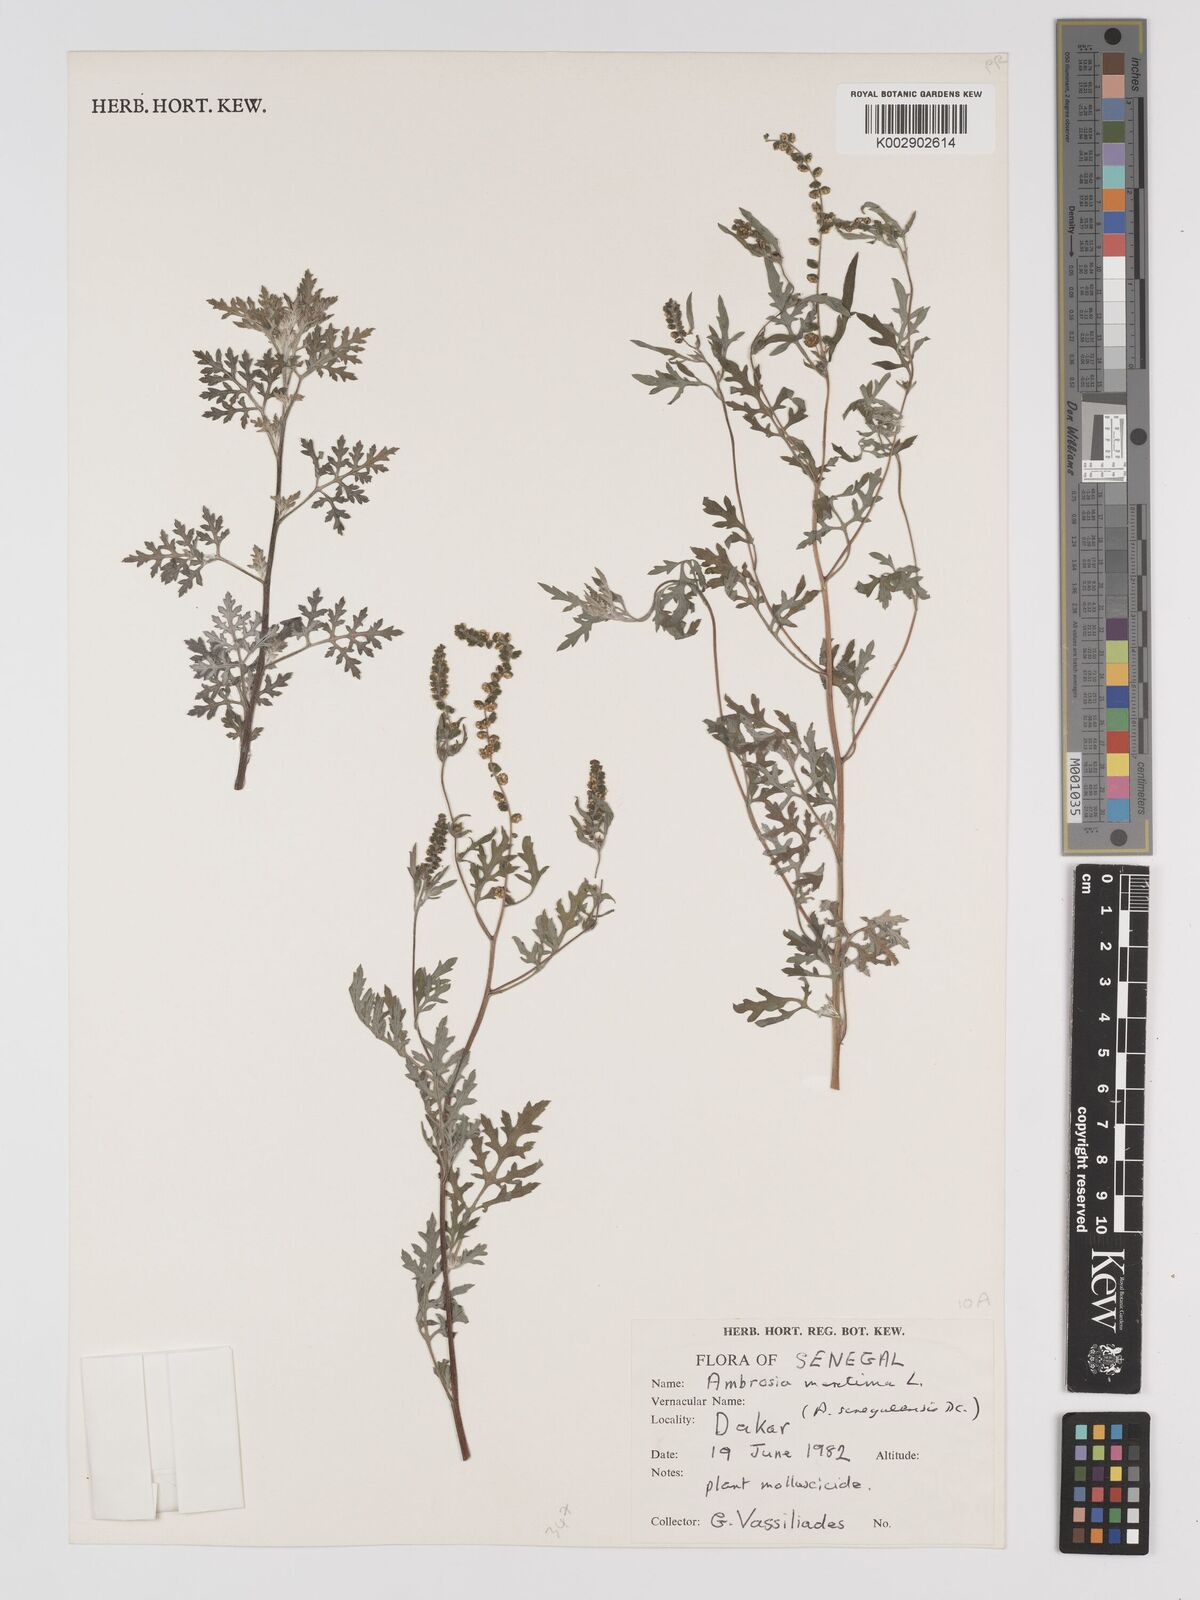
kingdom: Plantae
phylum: Tracheophyta
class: Magnoliopsida
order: Asterales
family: Asteraceae
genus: Ambrosia
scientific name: Ambrosia maritima
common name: Sea ambrosia
